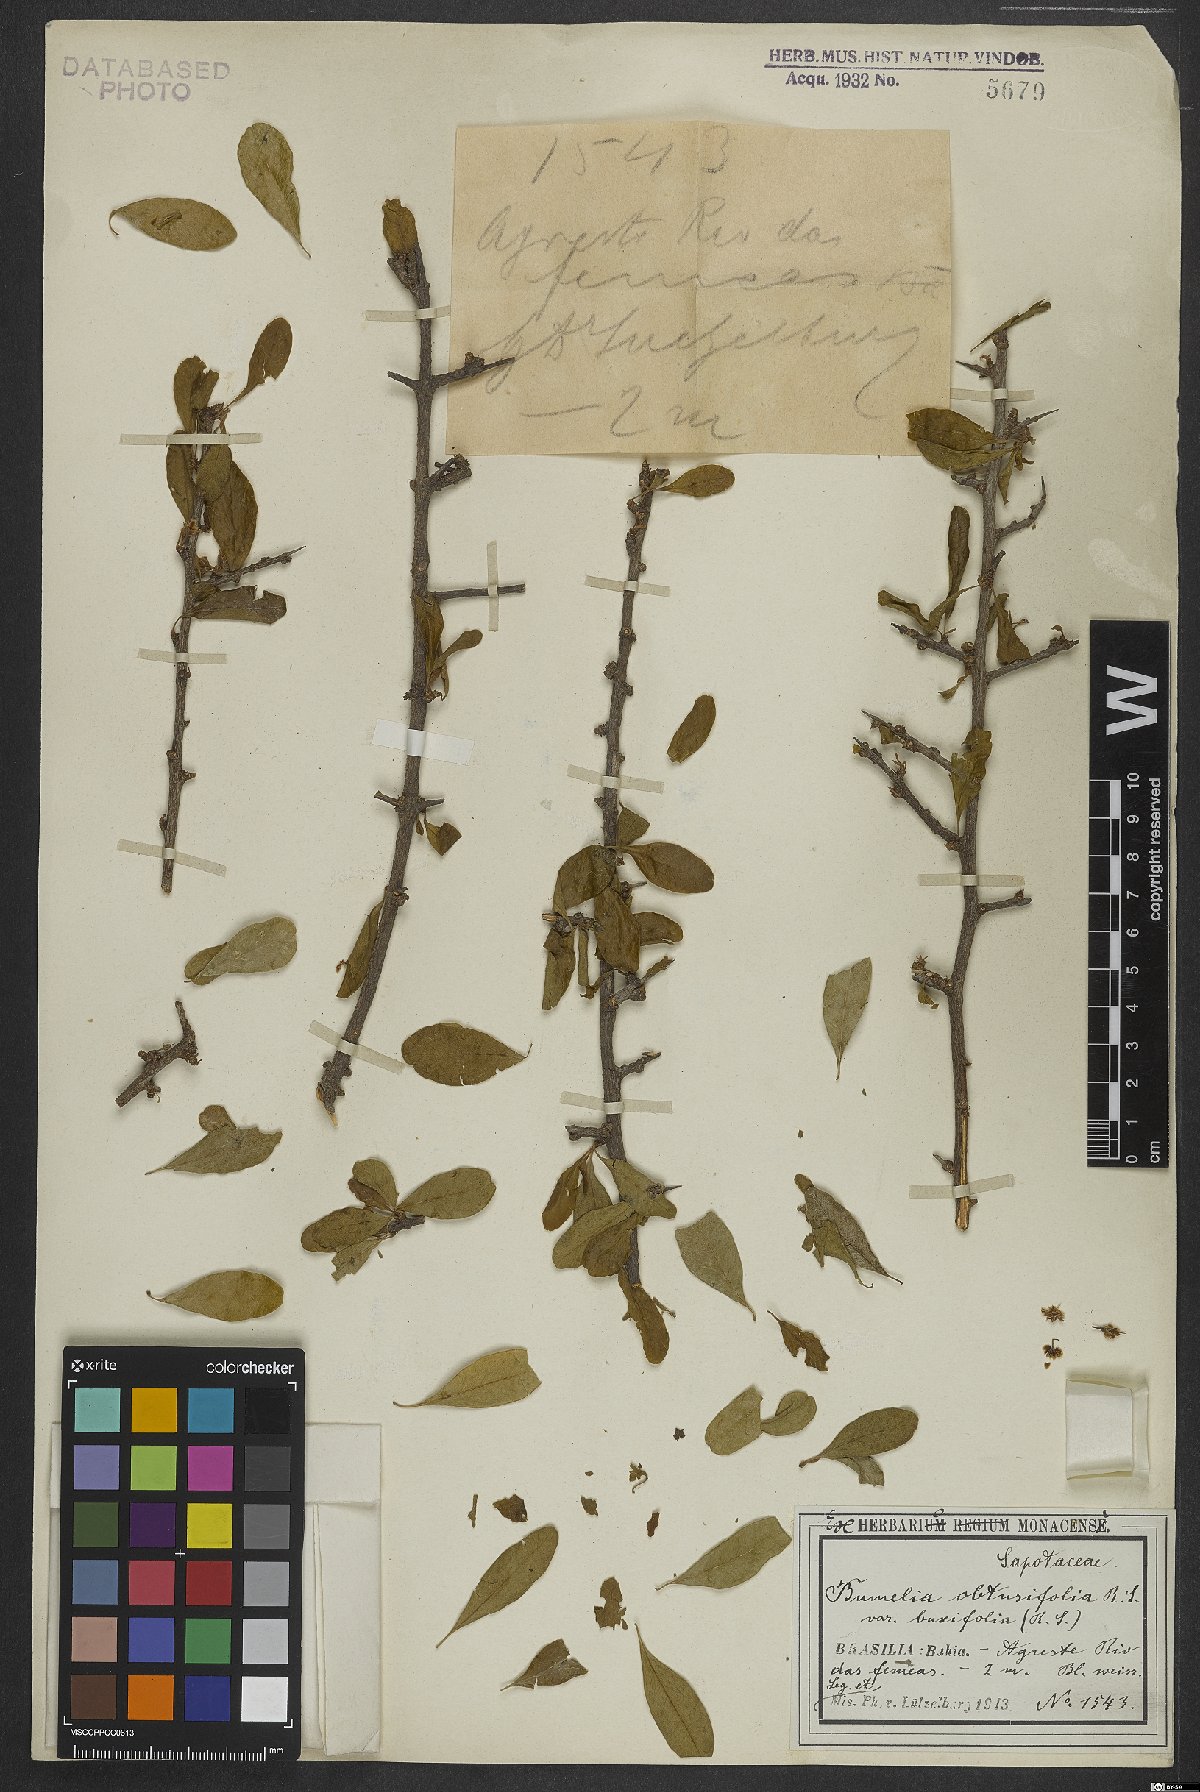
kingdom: Plantae
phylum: Tracheophyta
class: Magnoliopsida
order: Ericales
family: Sapotaceae
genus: Sideroxylon
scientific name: Sideroxylon obtusifolium
